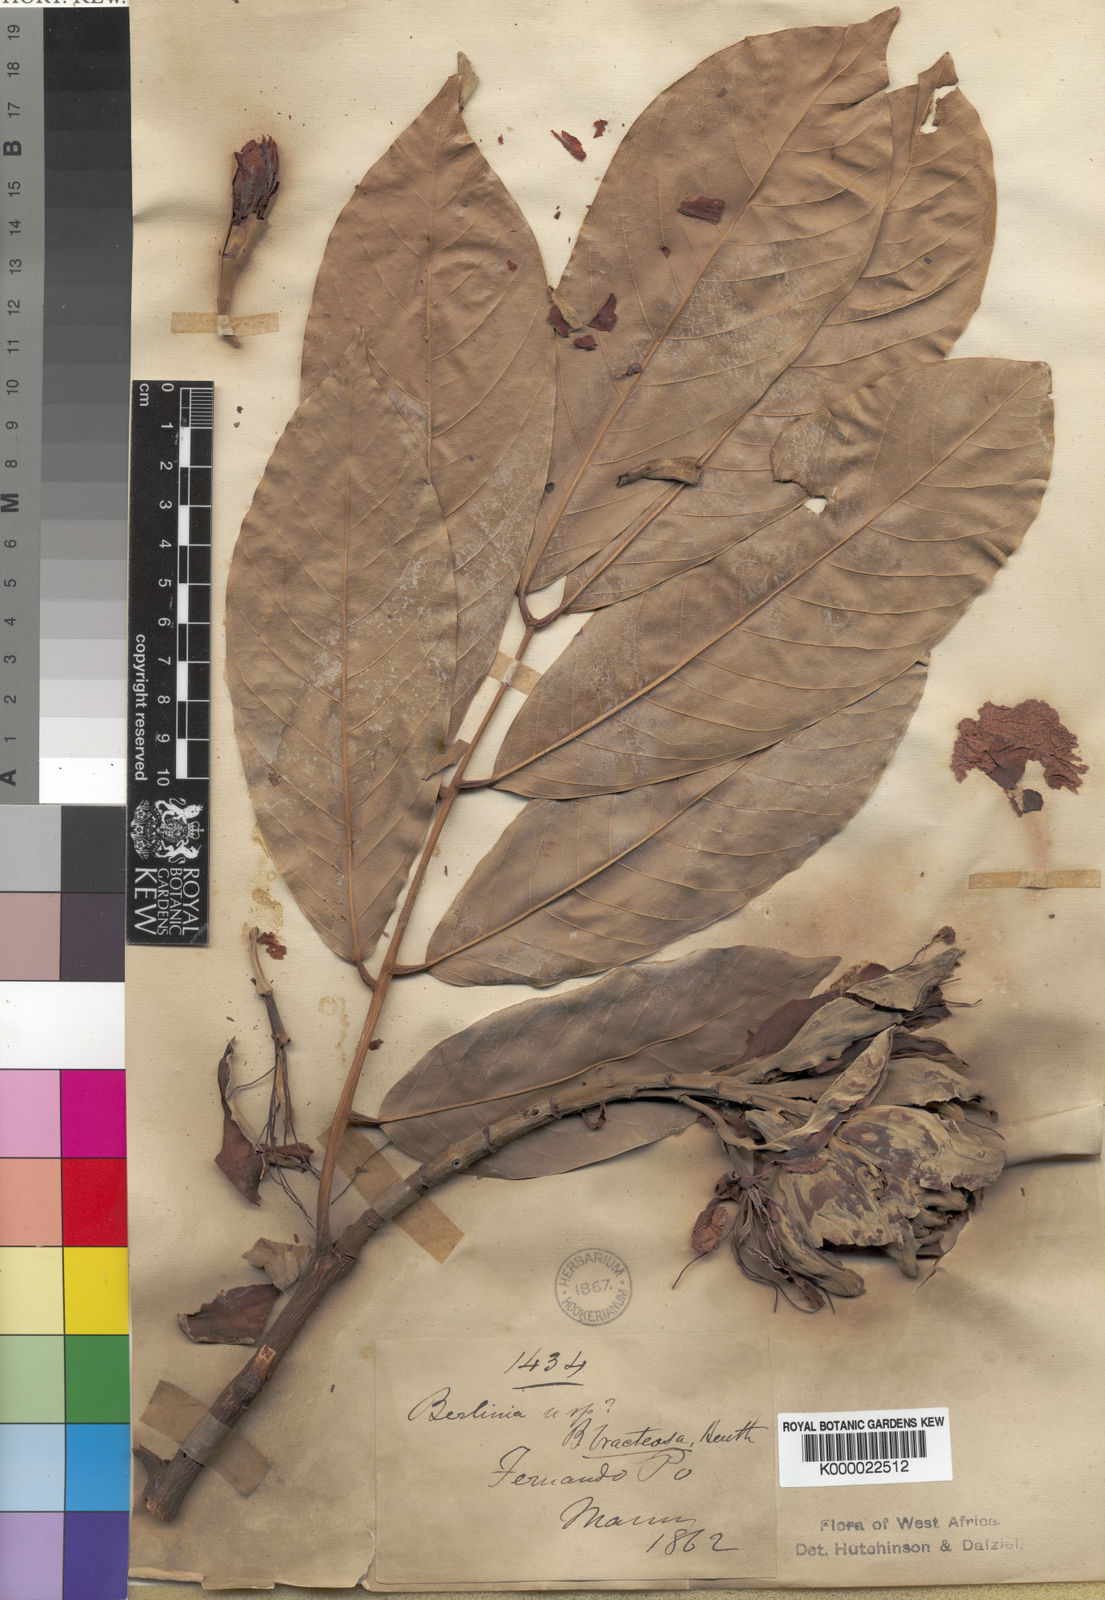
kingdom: Plantae
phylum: Tracheophyta
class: Magnoliopsida
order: Fabales
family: Fabaceae
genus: Berlinia
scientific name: Berlinia bracteosa
